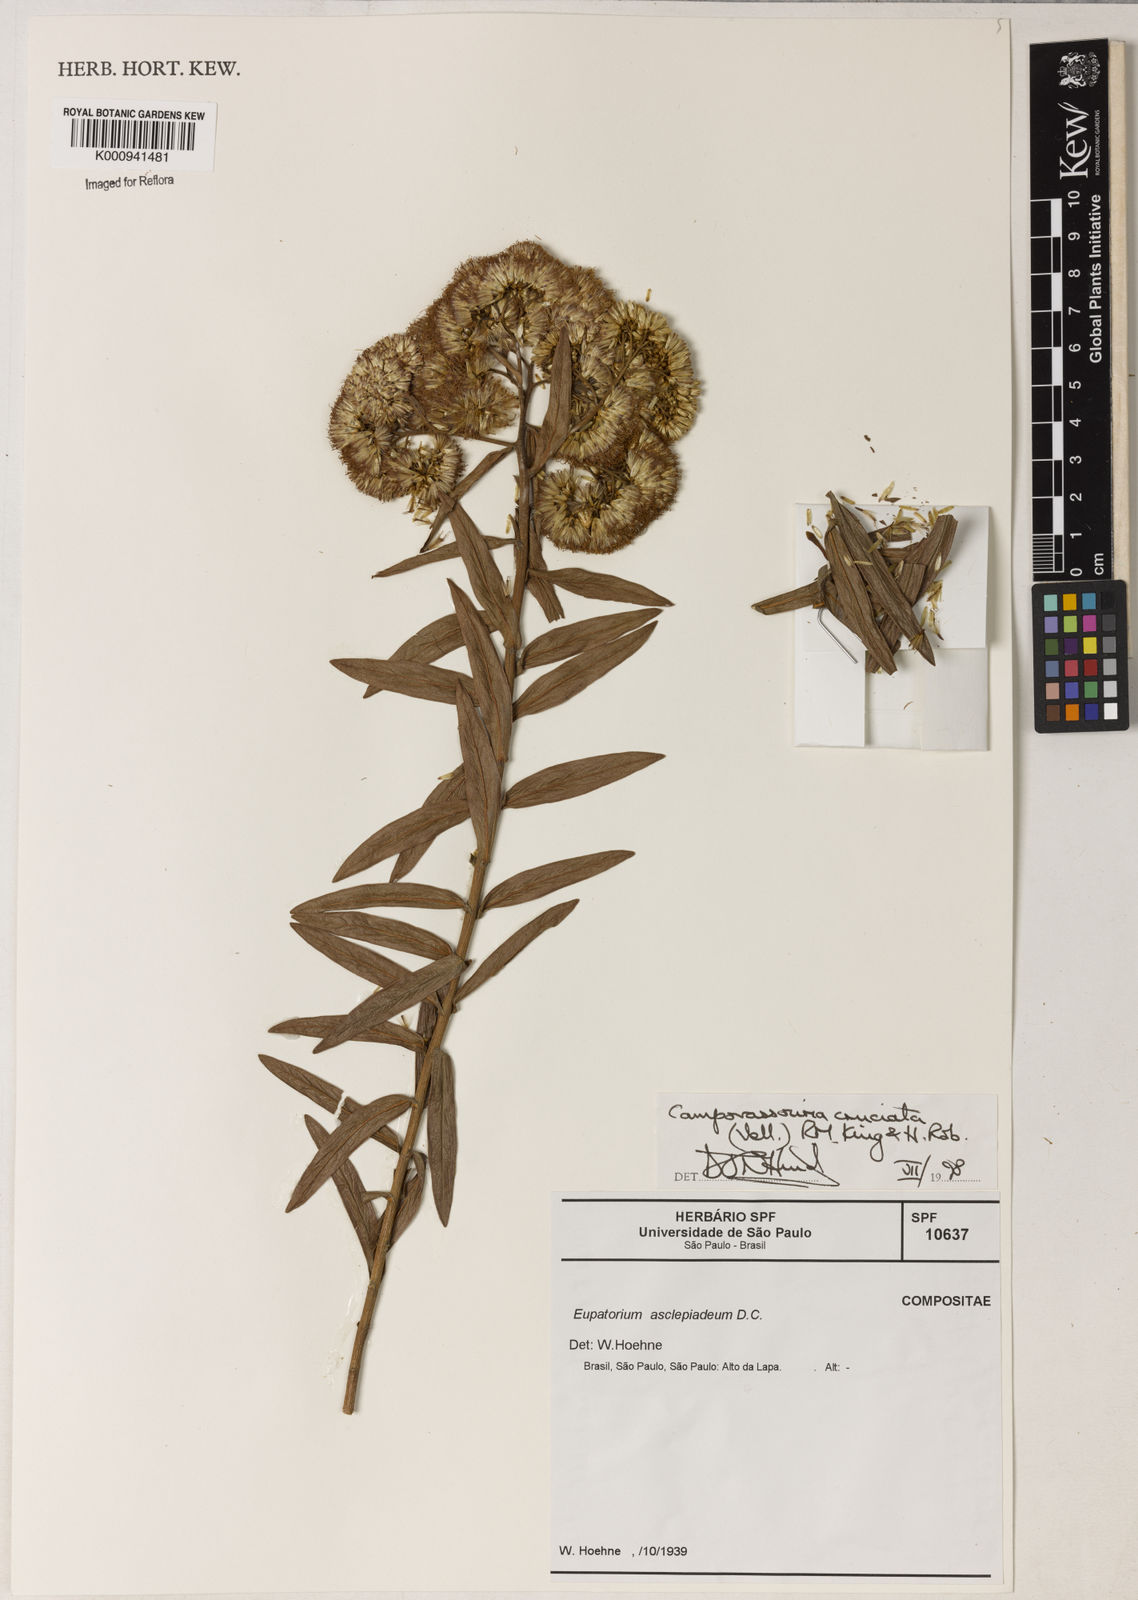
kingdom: Plantae
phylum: Tracheophyta
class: Magnoliopsida
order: Asterales
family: Asteraceae
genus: Campovassouria
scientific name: Campovassouria cruciata
